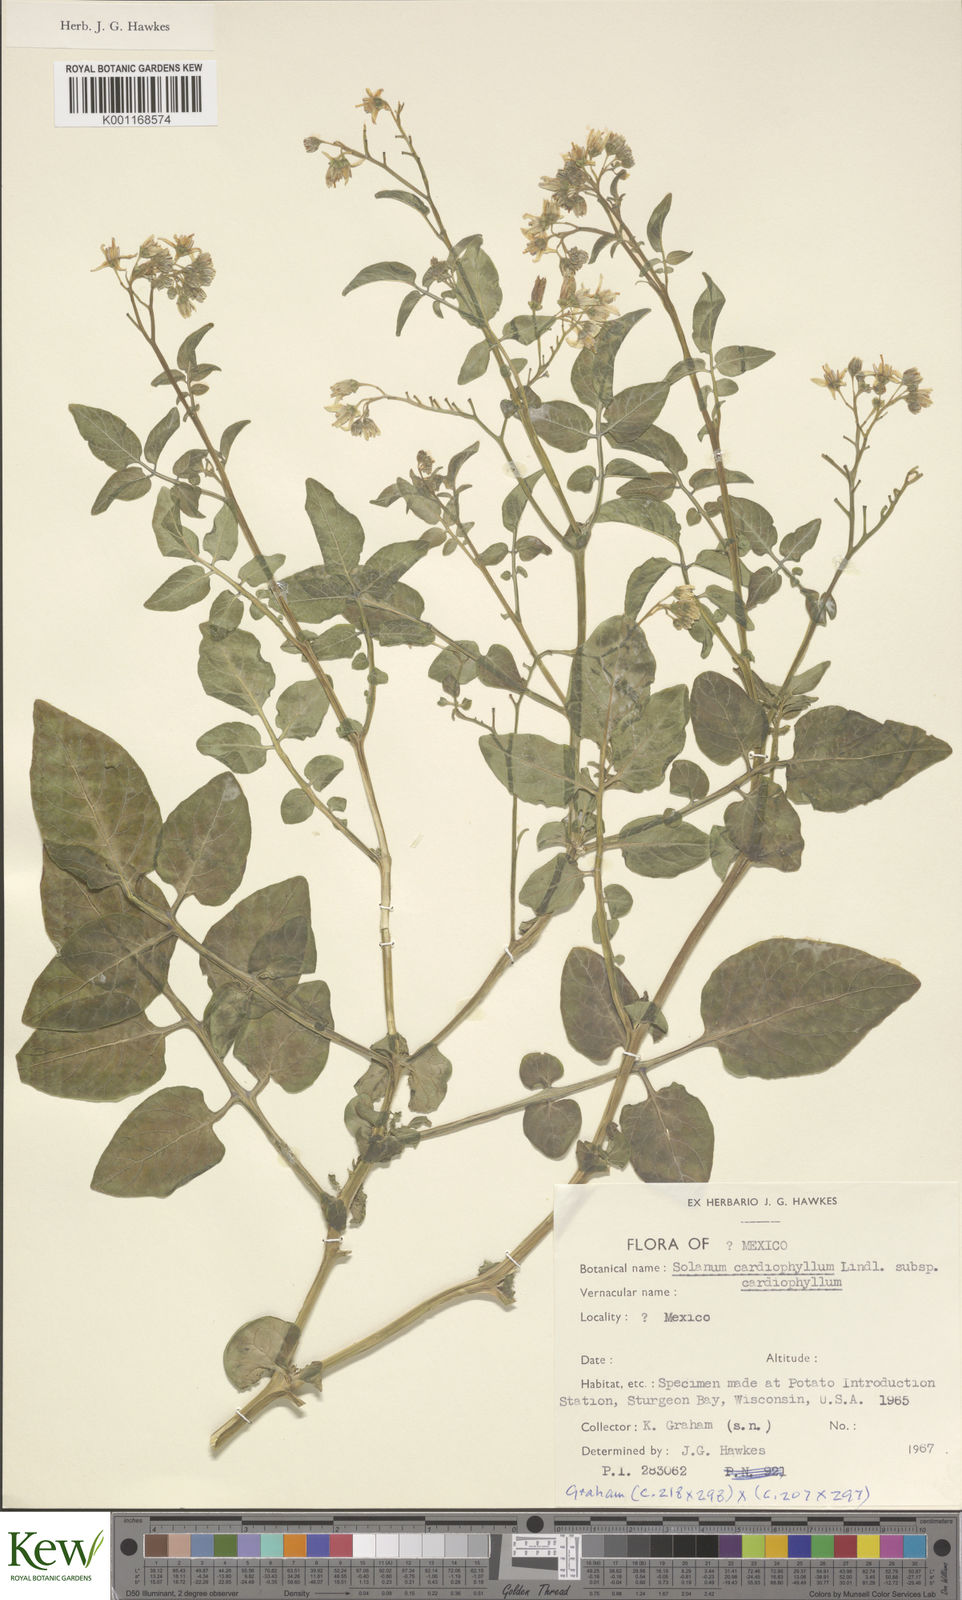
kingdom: Plantae
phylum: Tracheophyta
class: Magnoliopsida
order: Solanales
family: Solanaceae
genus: Solanum
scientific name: Solanum cardiophyllum
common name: Heartleaf horsenettle
